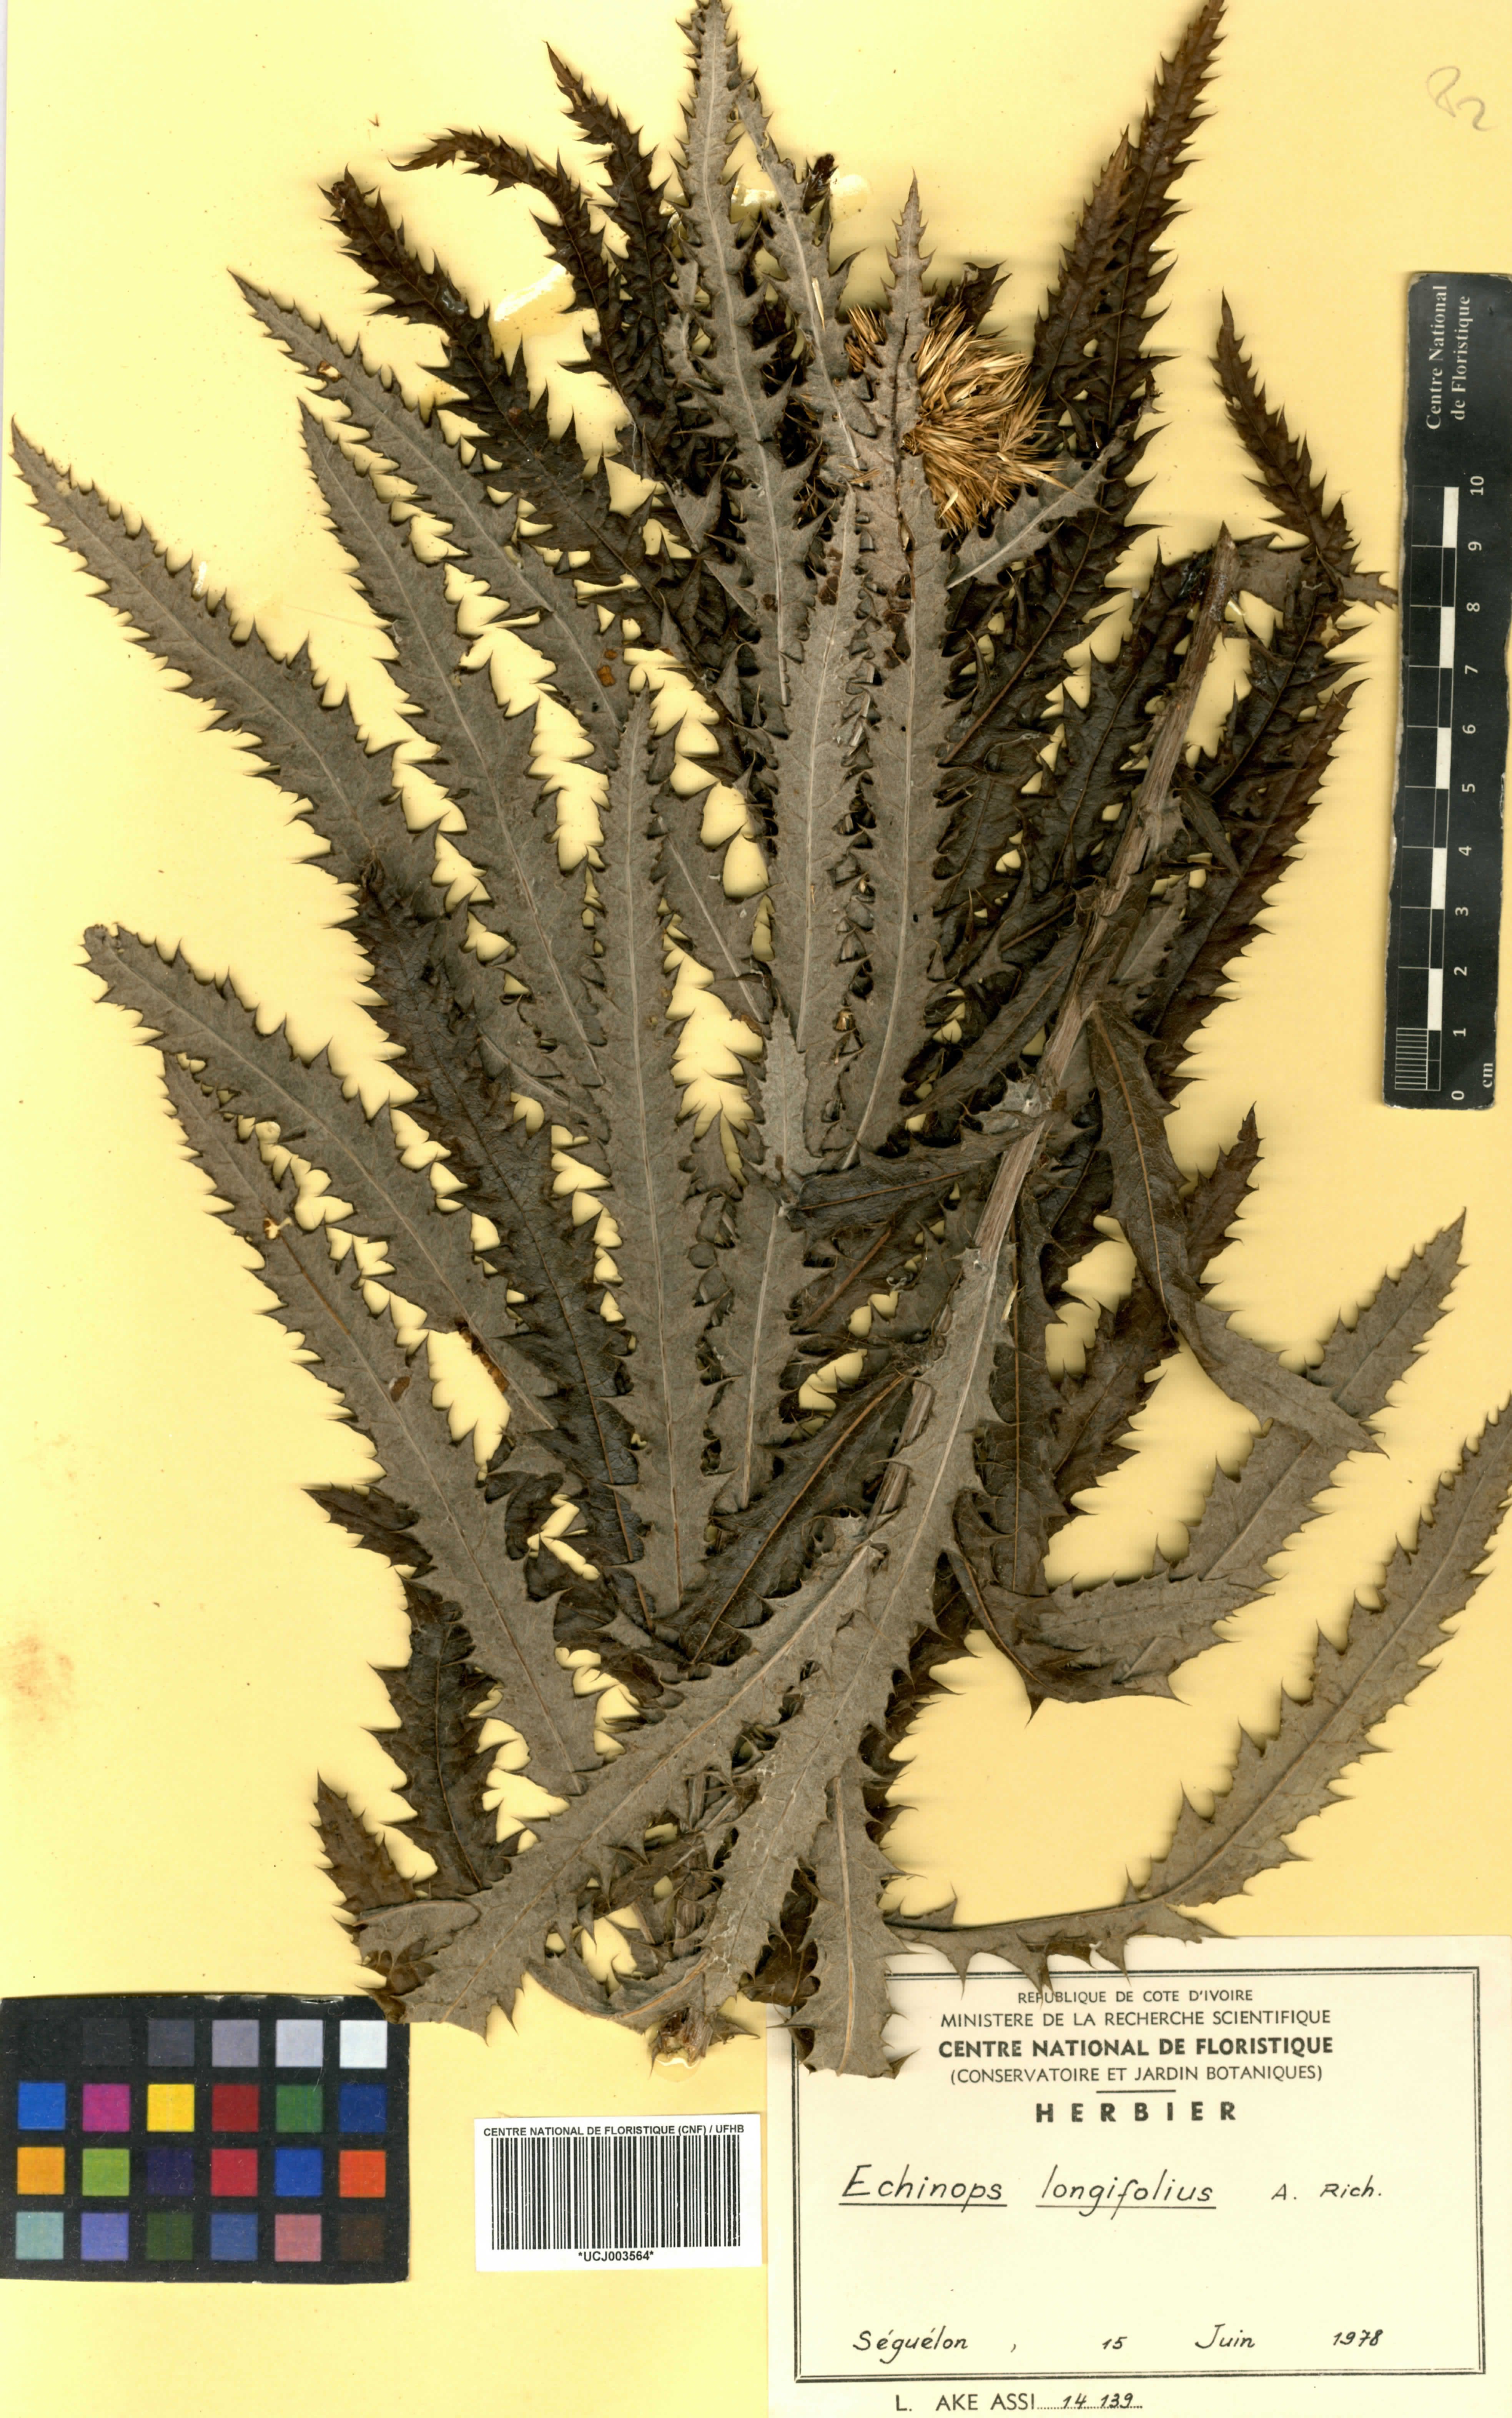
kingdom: Plantae
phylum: Tracheophyta
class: Magnoliopsida
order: Asterales
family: Asteraceae
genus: Echinops
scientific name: Echinops longifolius
